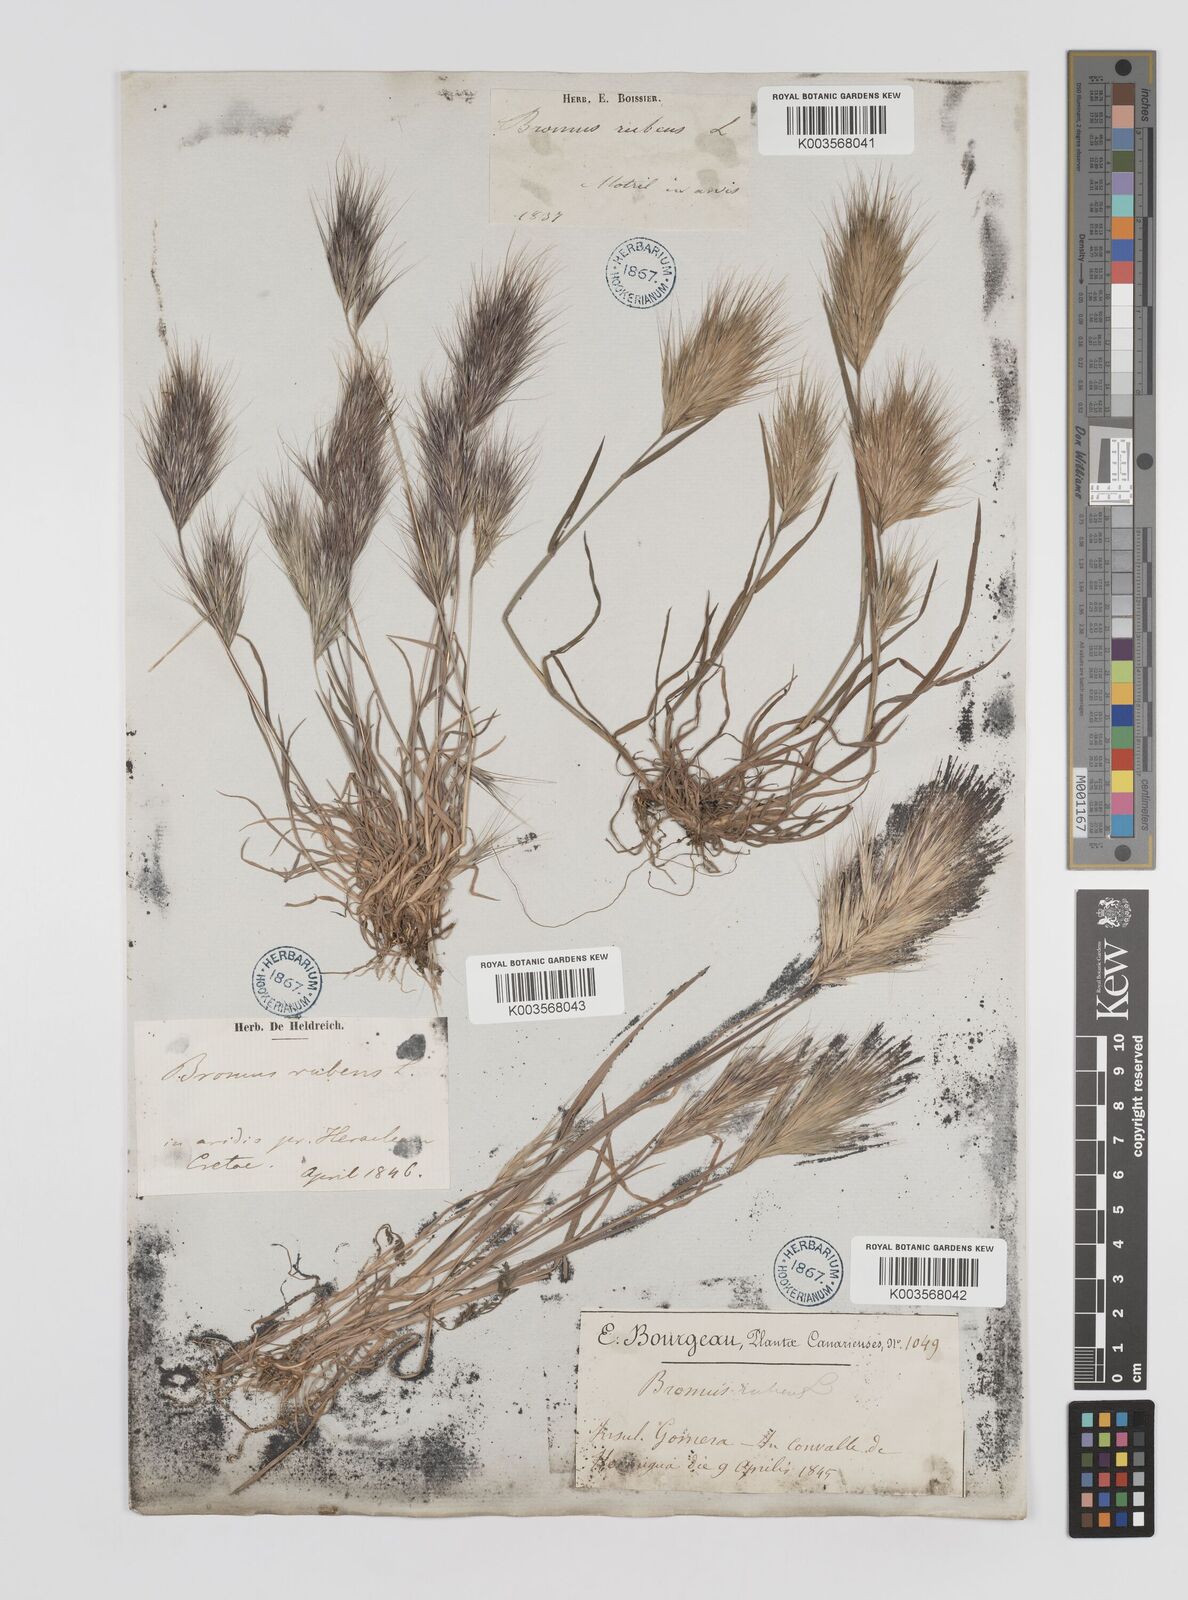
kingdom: Plantae
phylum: Tracheophyta
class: Liliopsida
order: Poales
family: Poaceae
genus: Bromus
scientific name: Bromus
